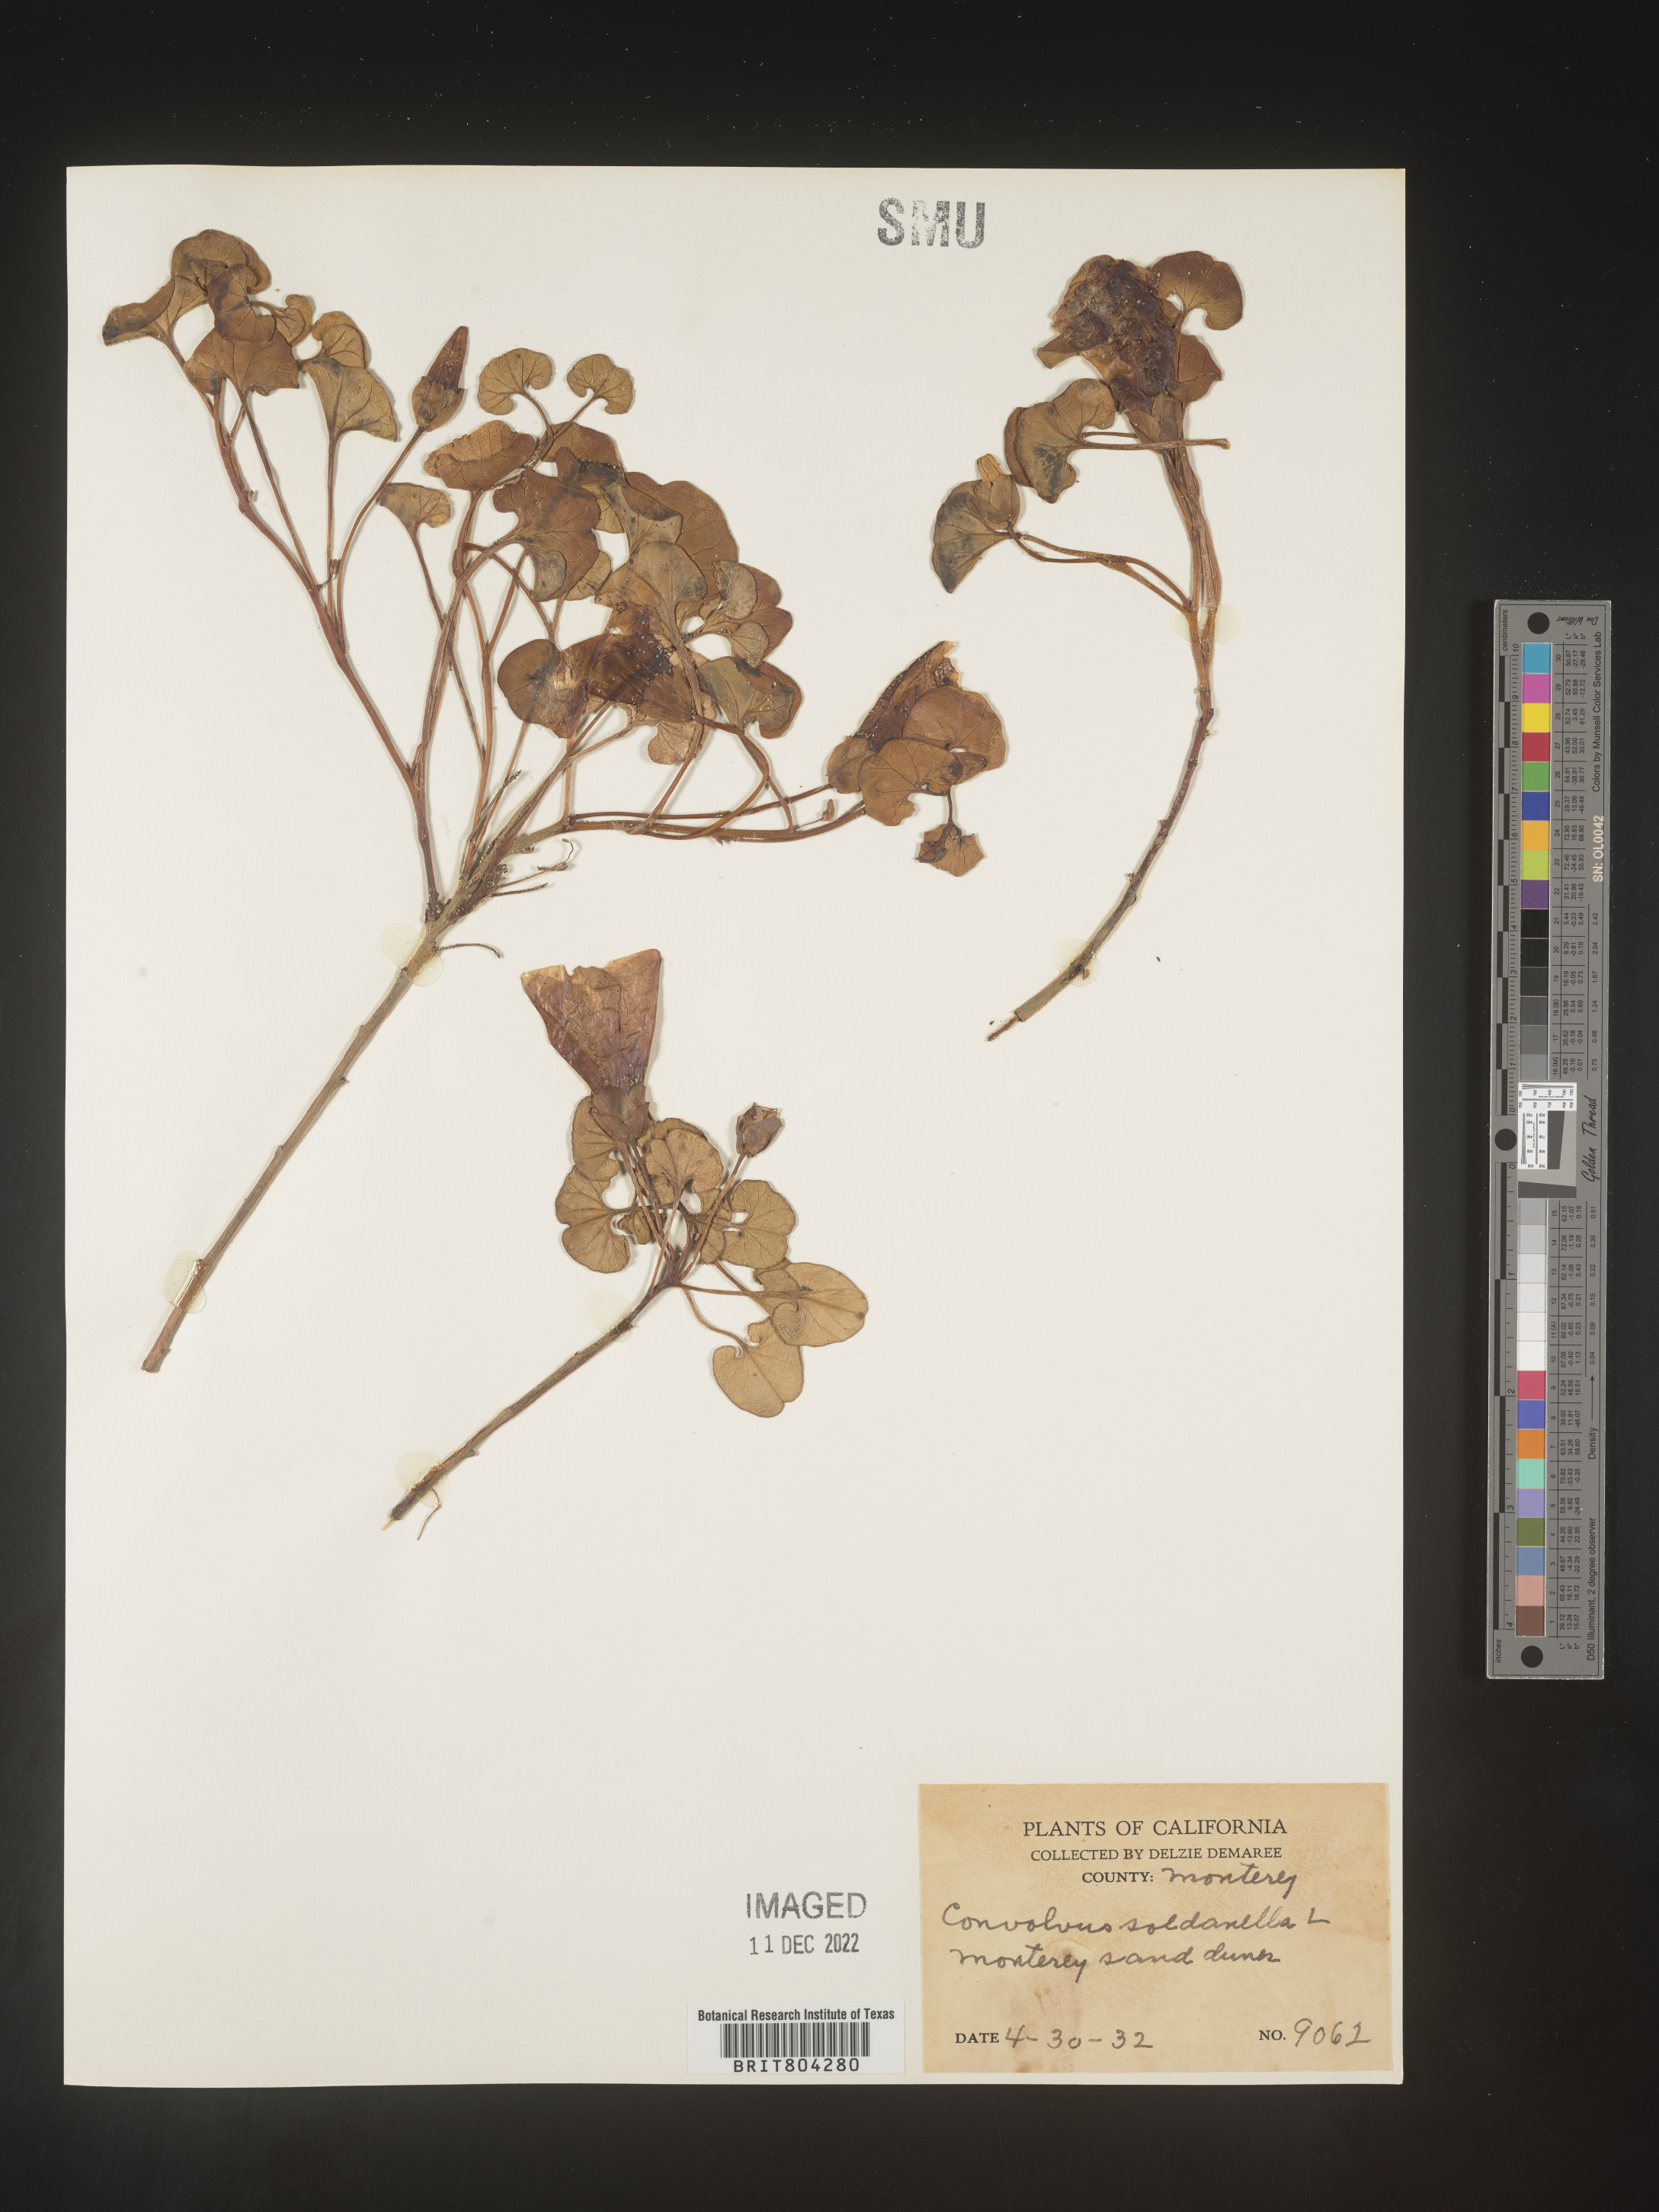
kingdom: Plantae
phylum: Tracheophyta
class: Magnoliopsida
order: Solanales
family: Convolvulaceae
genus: Calystegia
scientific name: Calystegia
